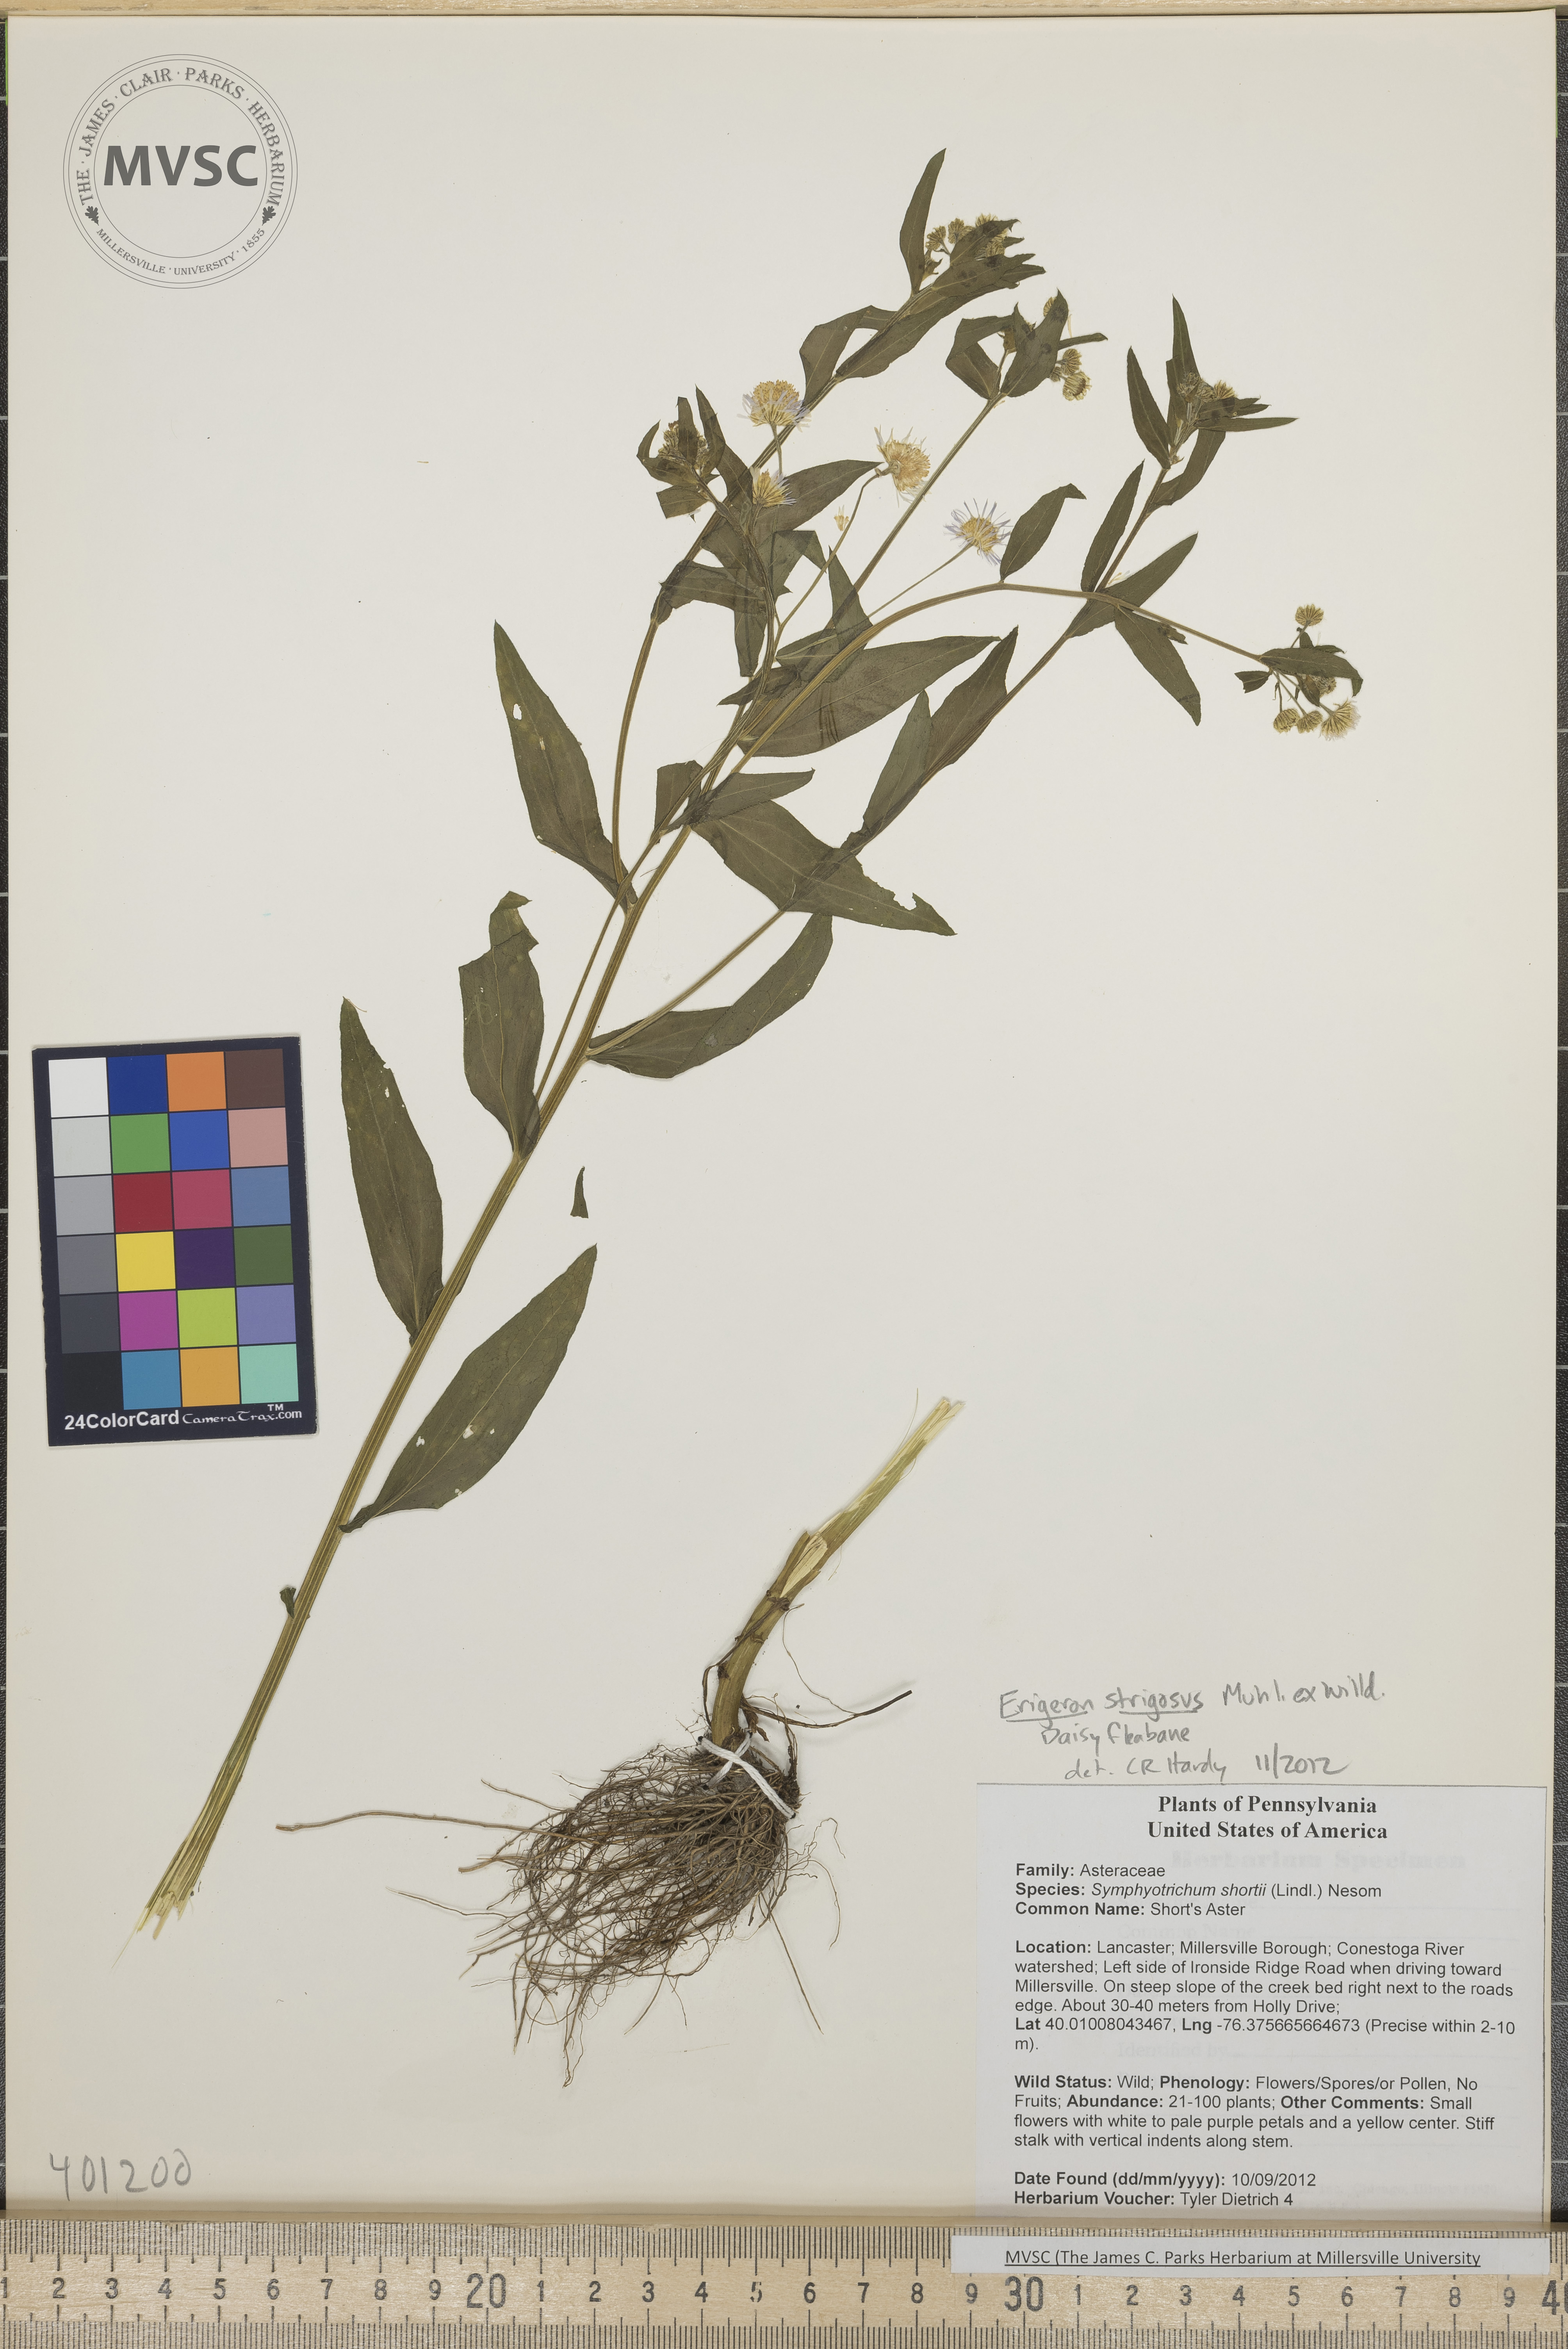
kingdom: Plantae
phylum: Tracheophyta
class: Magnoliopsida
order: Asterales
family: Asteraceae
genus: Erigeron
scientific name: Erigeron strigosus
